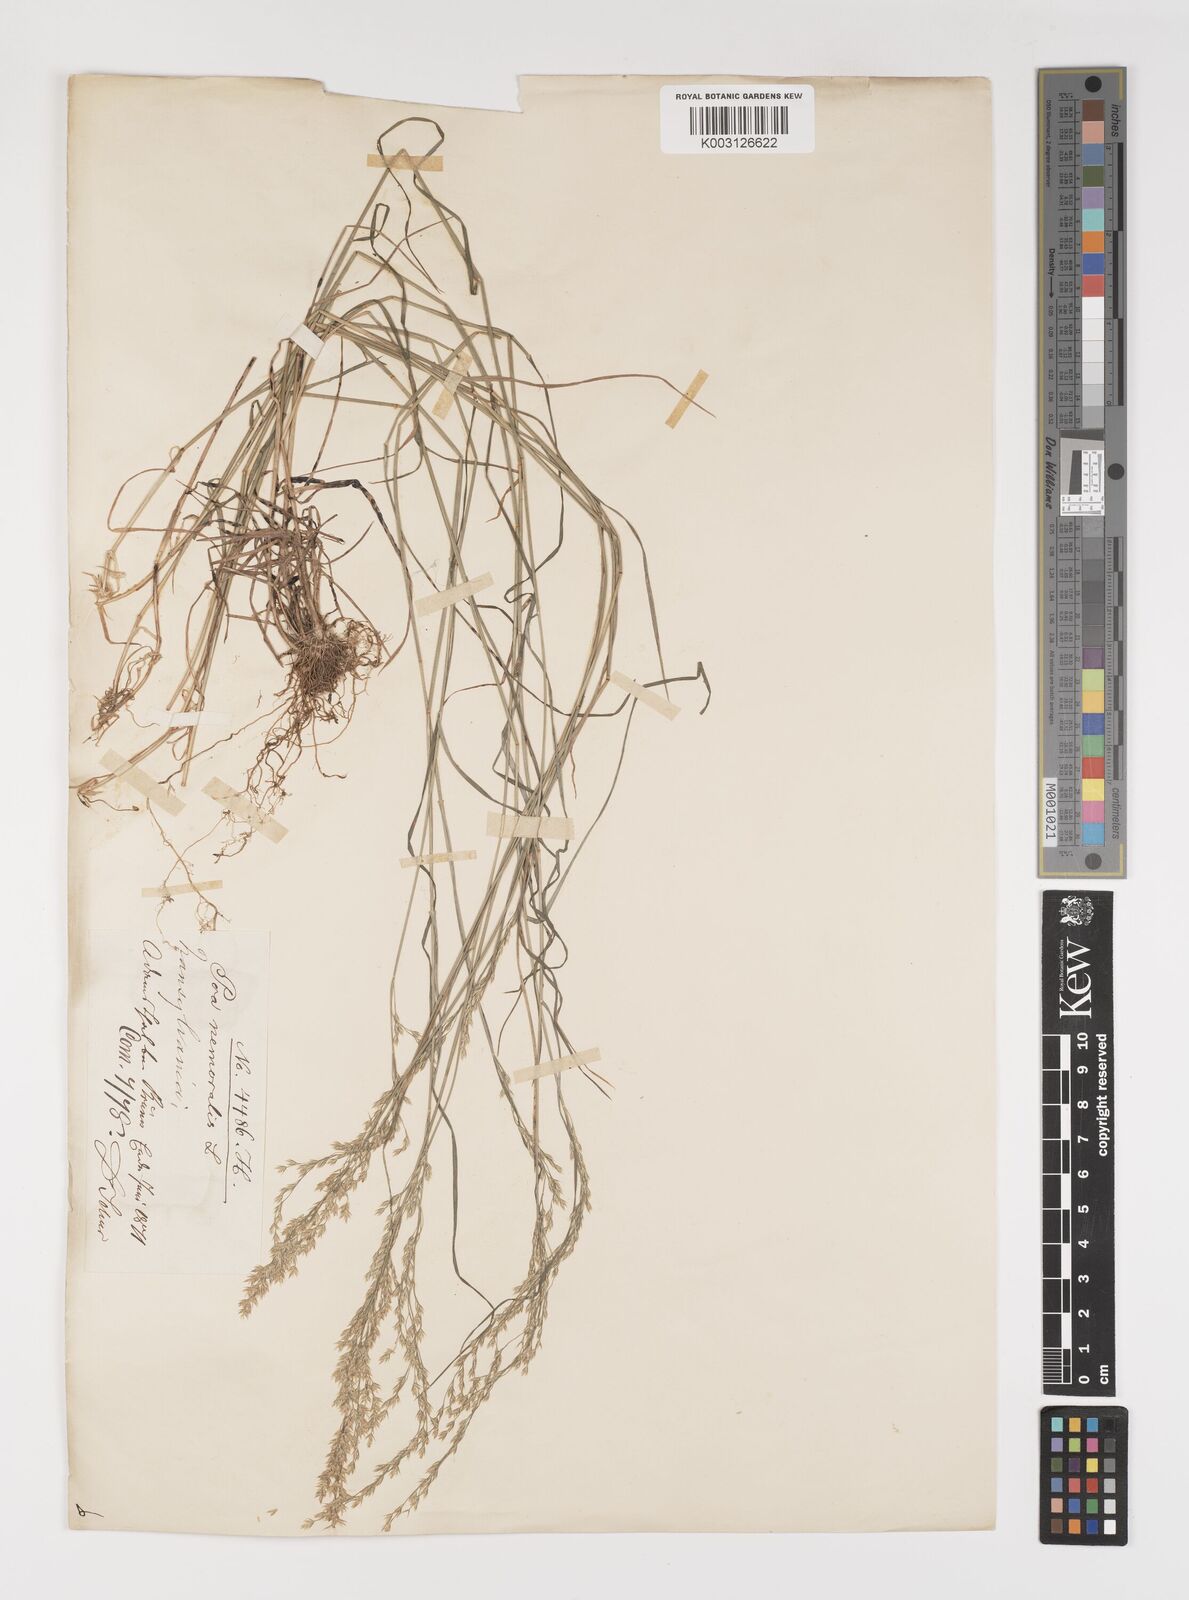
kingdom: Plantae
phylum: Tracheophyta
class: Liliopsida
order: Poales
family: Poaceae
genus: Poa
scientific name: Poa nemoralis
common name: Wood bluegrass
